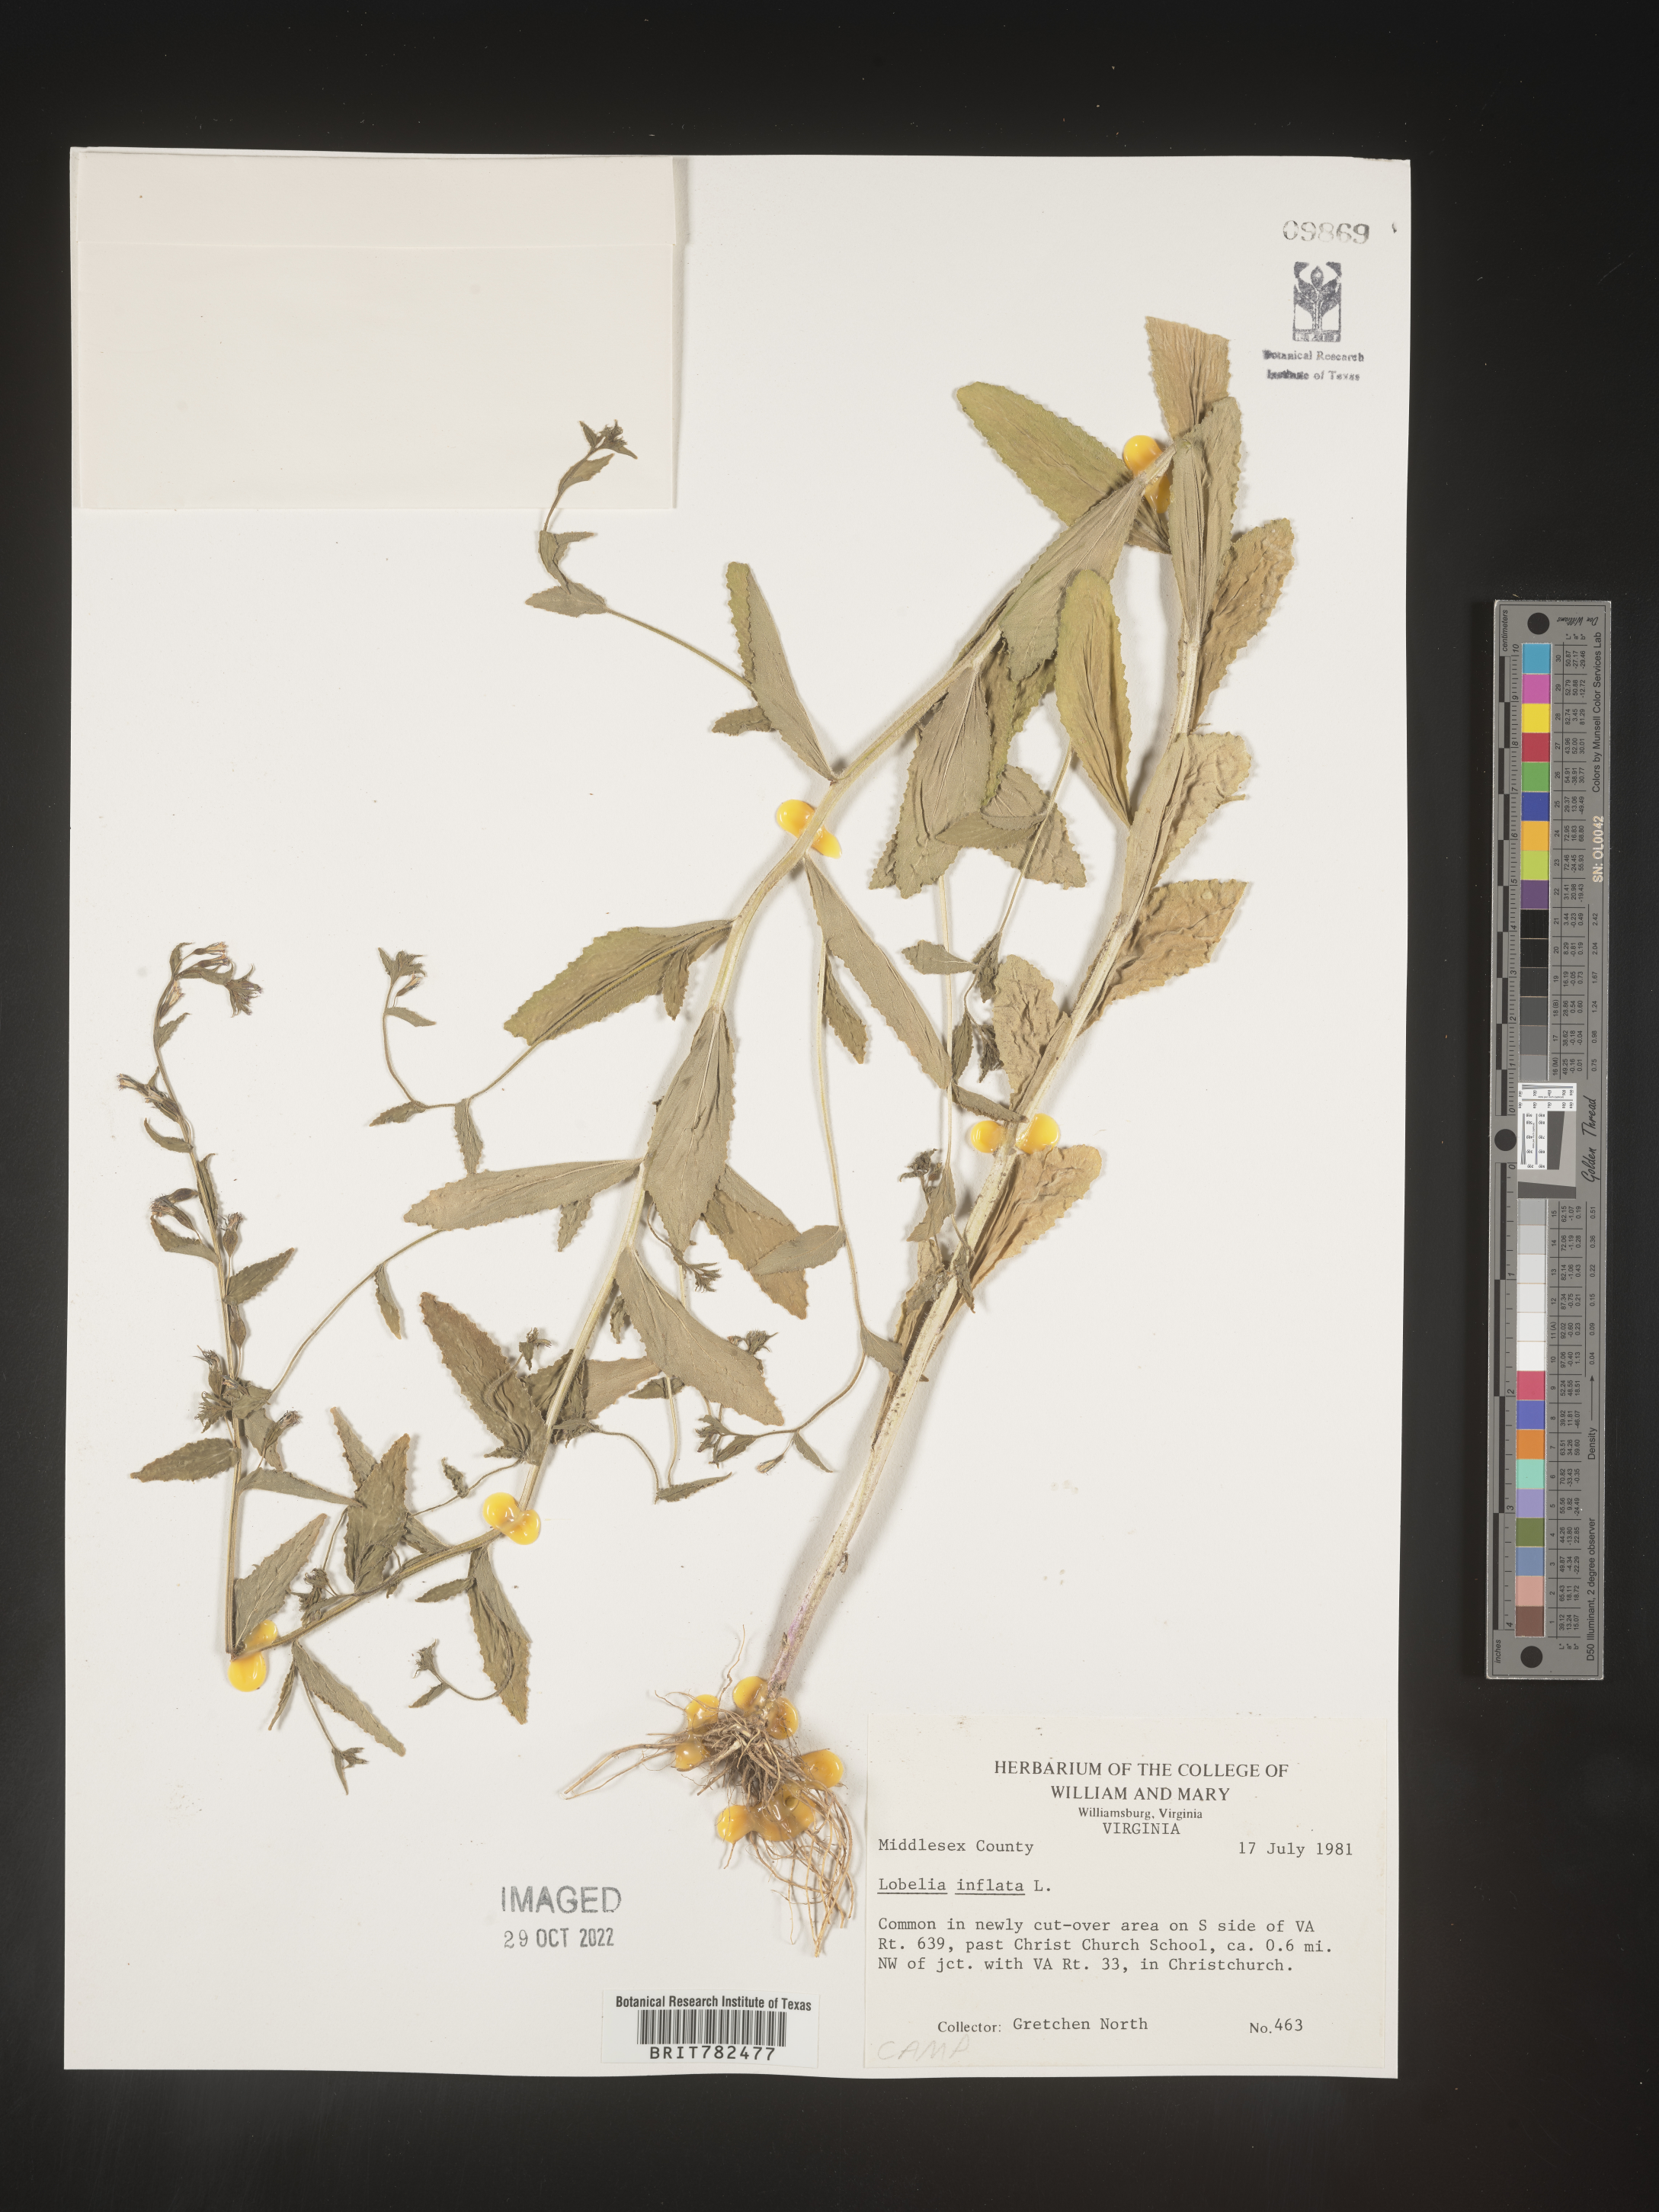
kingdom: Plantae
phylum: Tracheophyta
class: Magnoliopsida
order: Asterales
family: Campanulaceae
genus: Lobelia
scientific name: Lobelia inflata
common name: Indian tobacco
